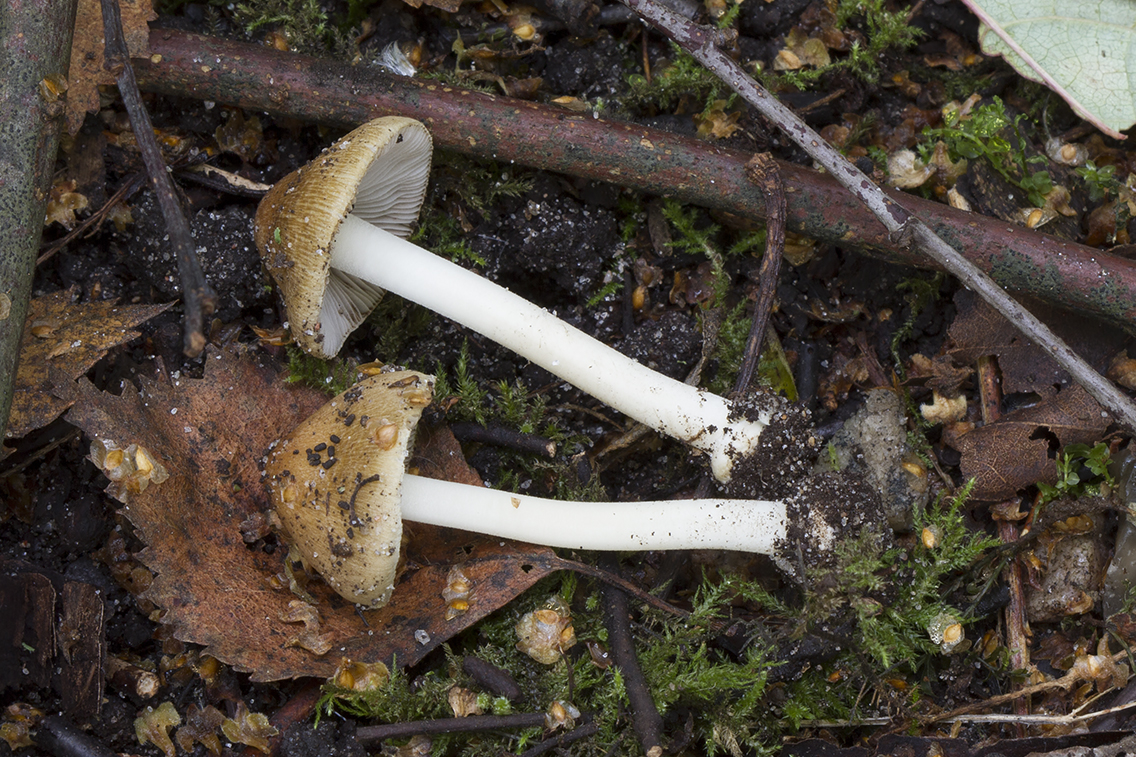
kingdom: Fungi
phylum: Basidiomycota
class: Agaricomycetes
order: Agaricales
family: Inocybaceae
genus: Inocybe
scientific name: Inocybe mixtilis
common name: randknoldet trævlhat
